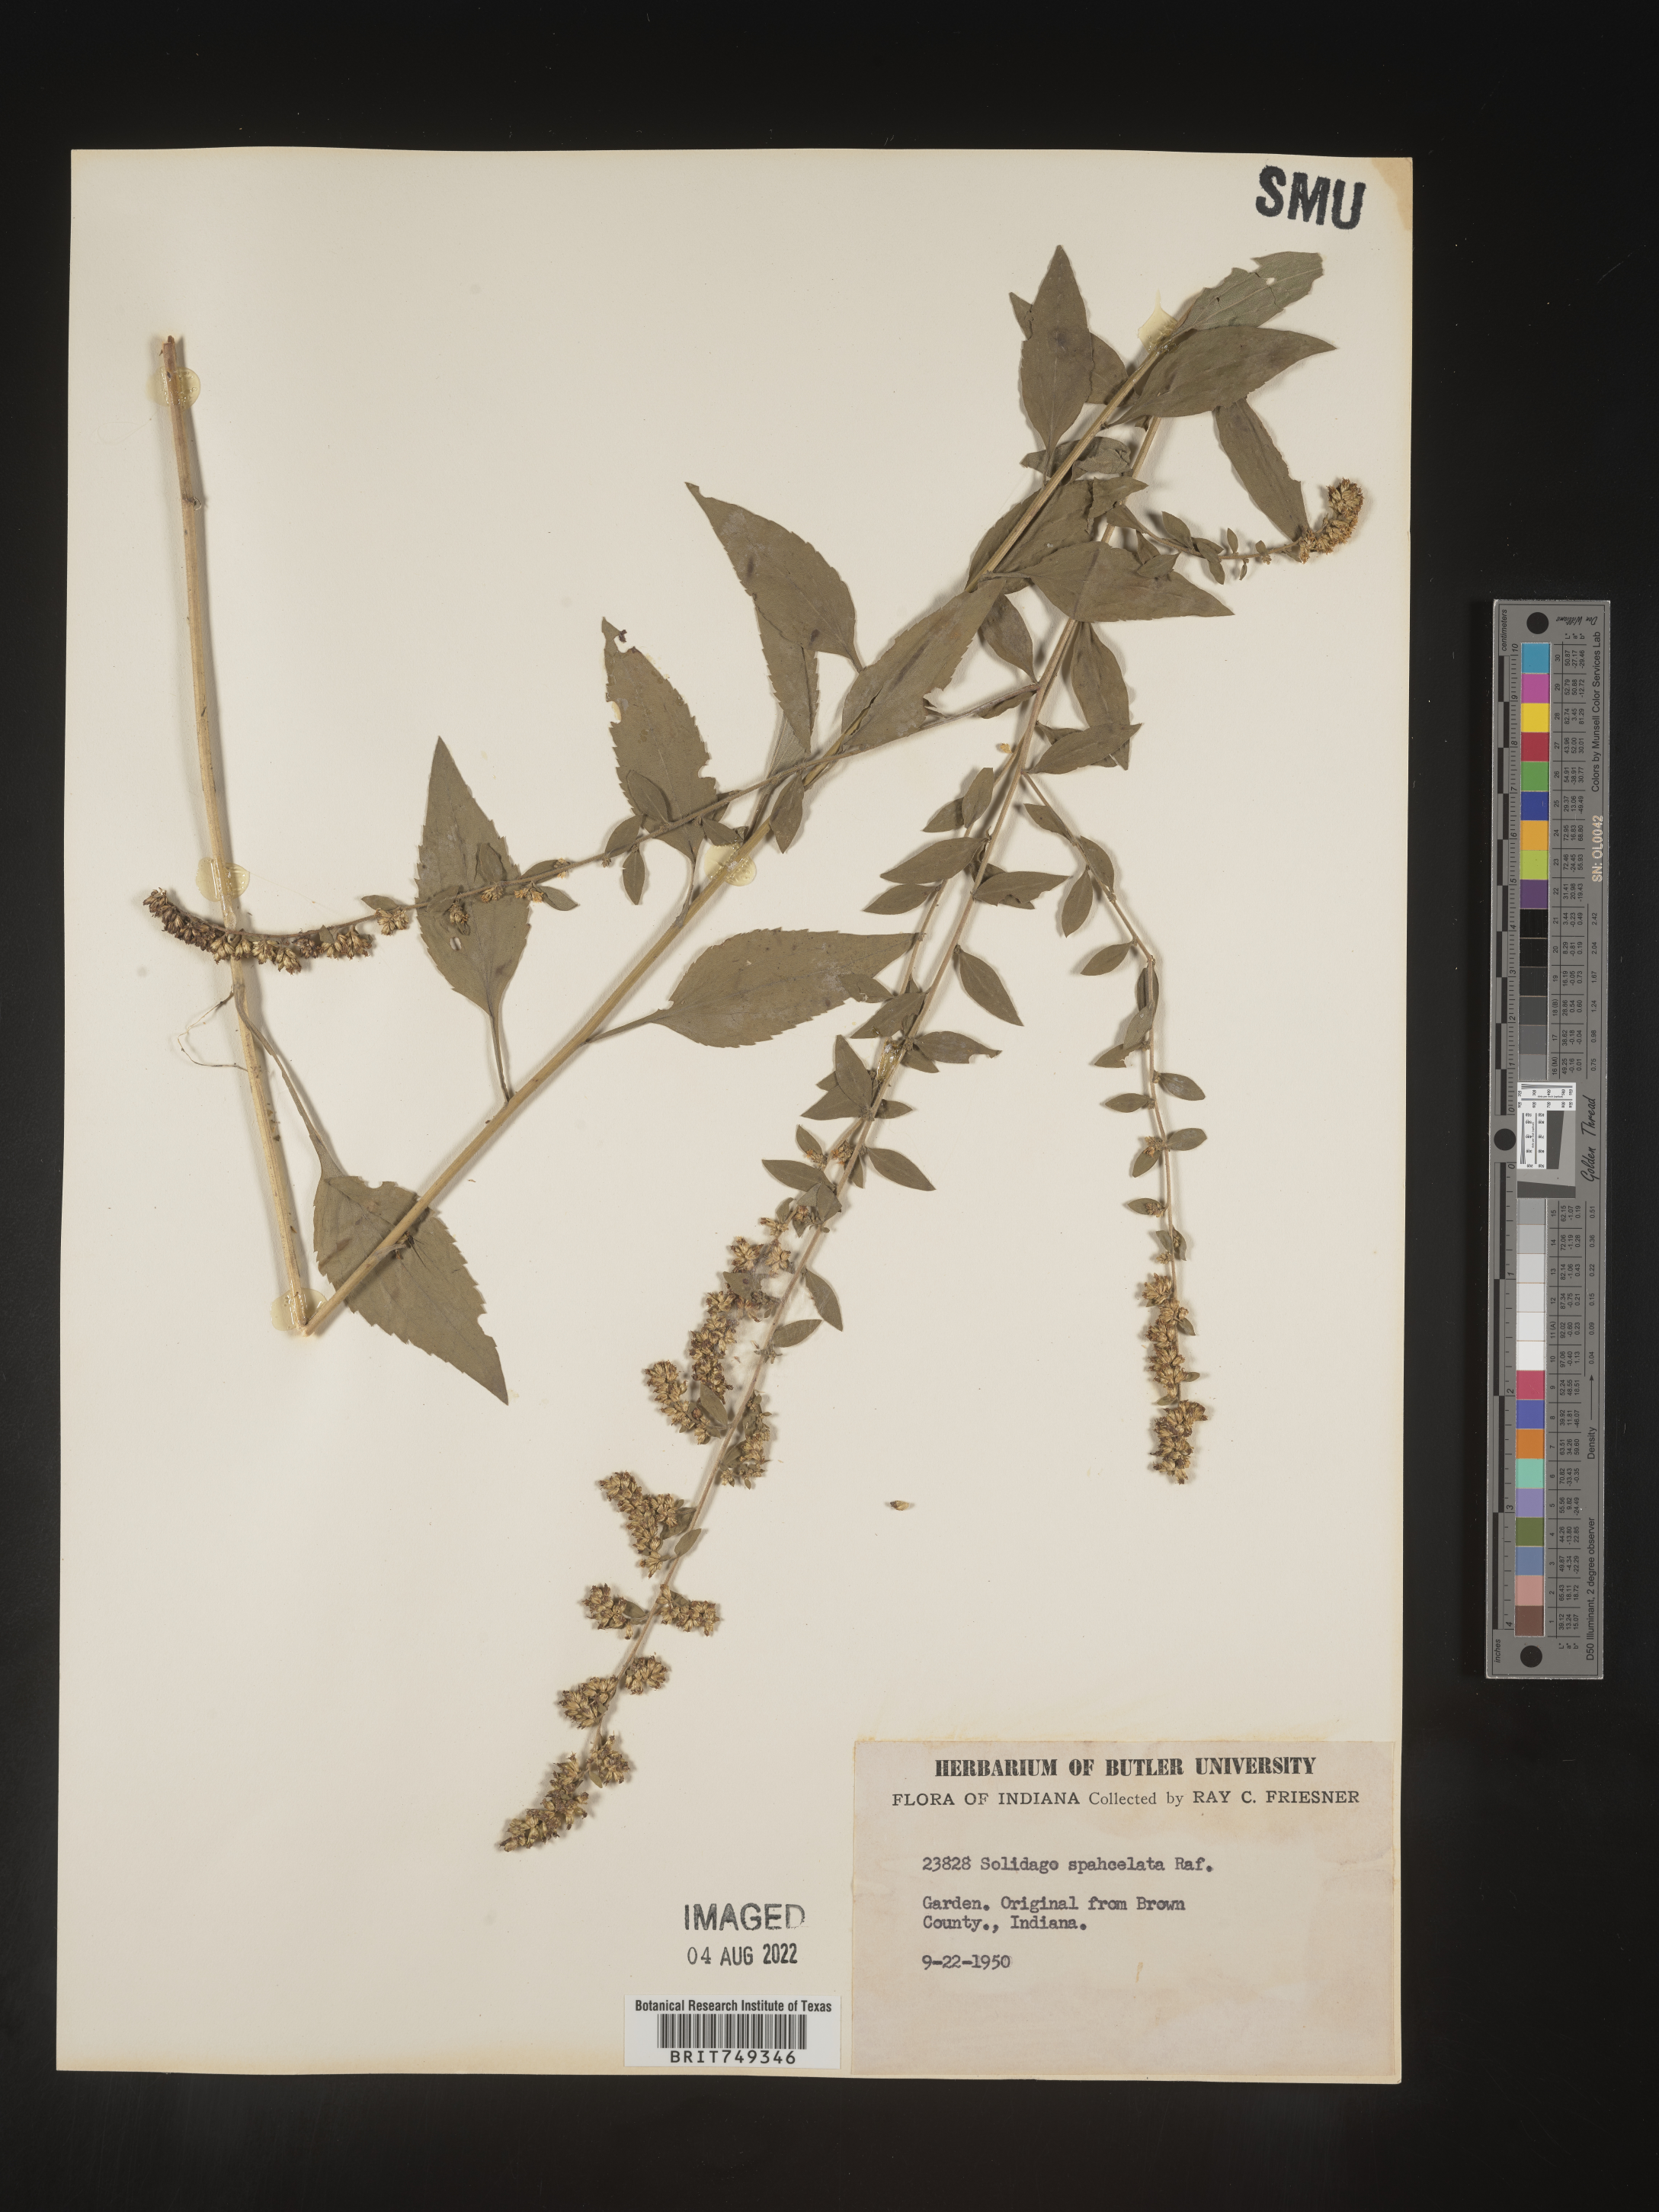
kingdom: Plantae
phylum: Tracheophyta
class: Magnoliopsida
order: Asterales
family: Asteraceae
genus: Solidago
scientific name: Solidago sphacelata
